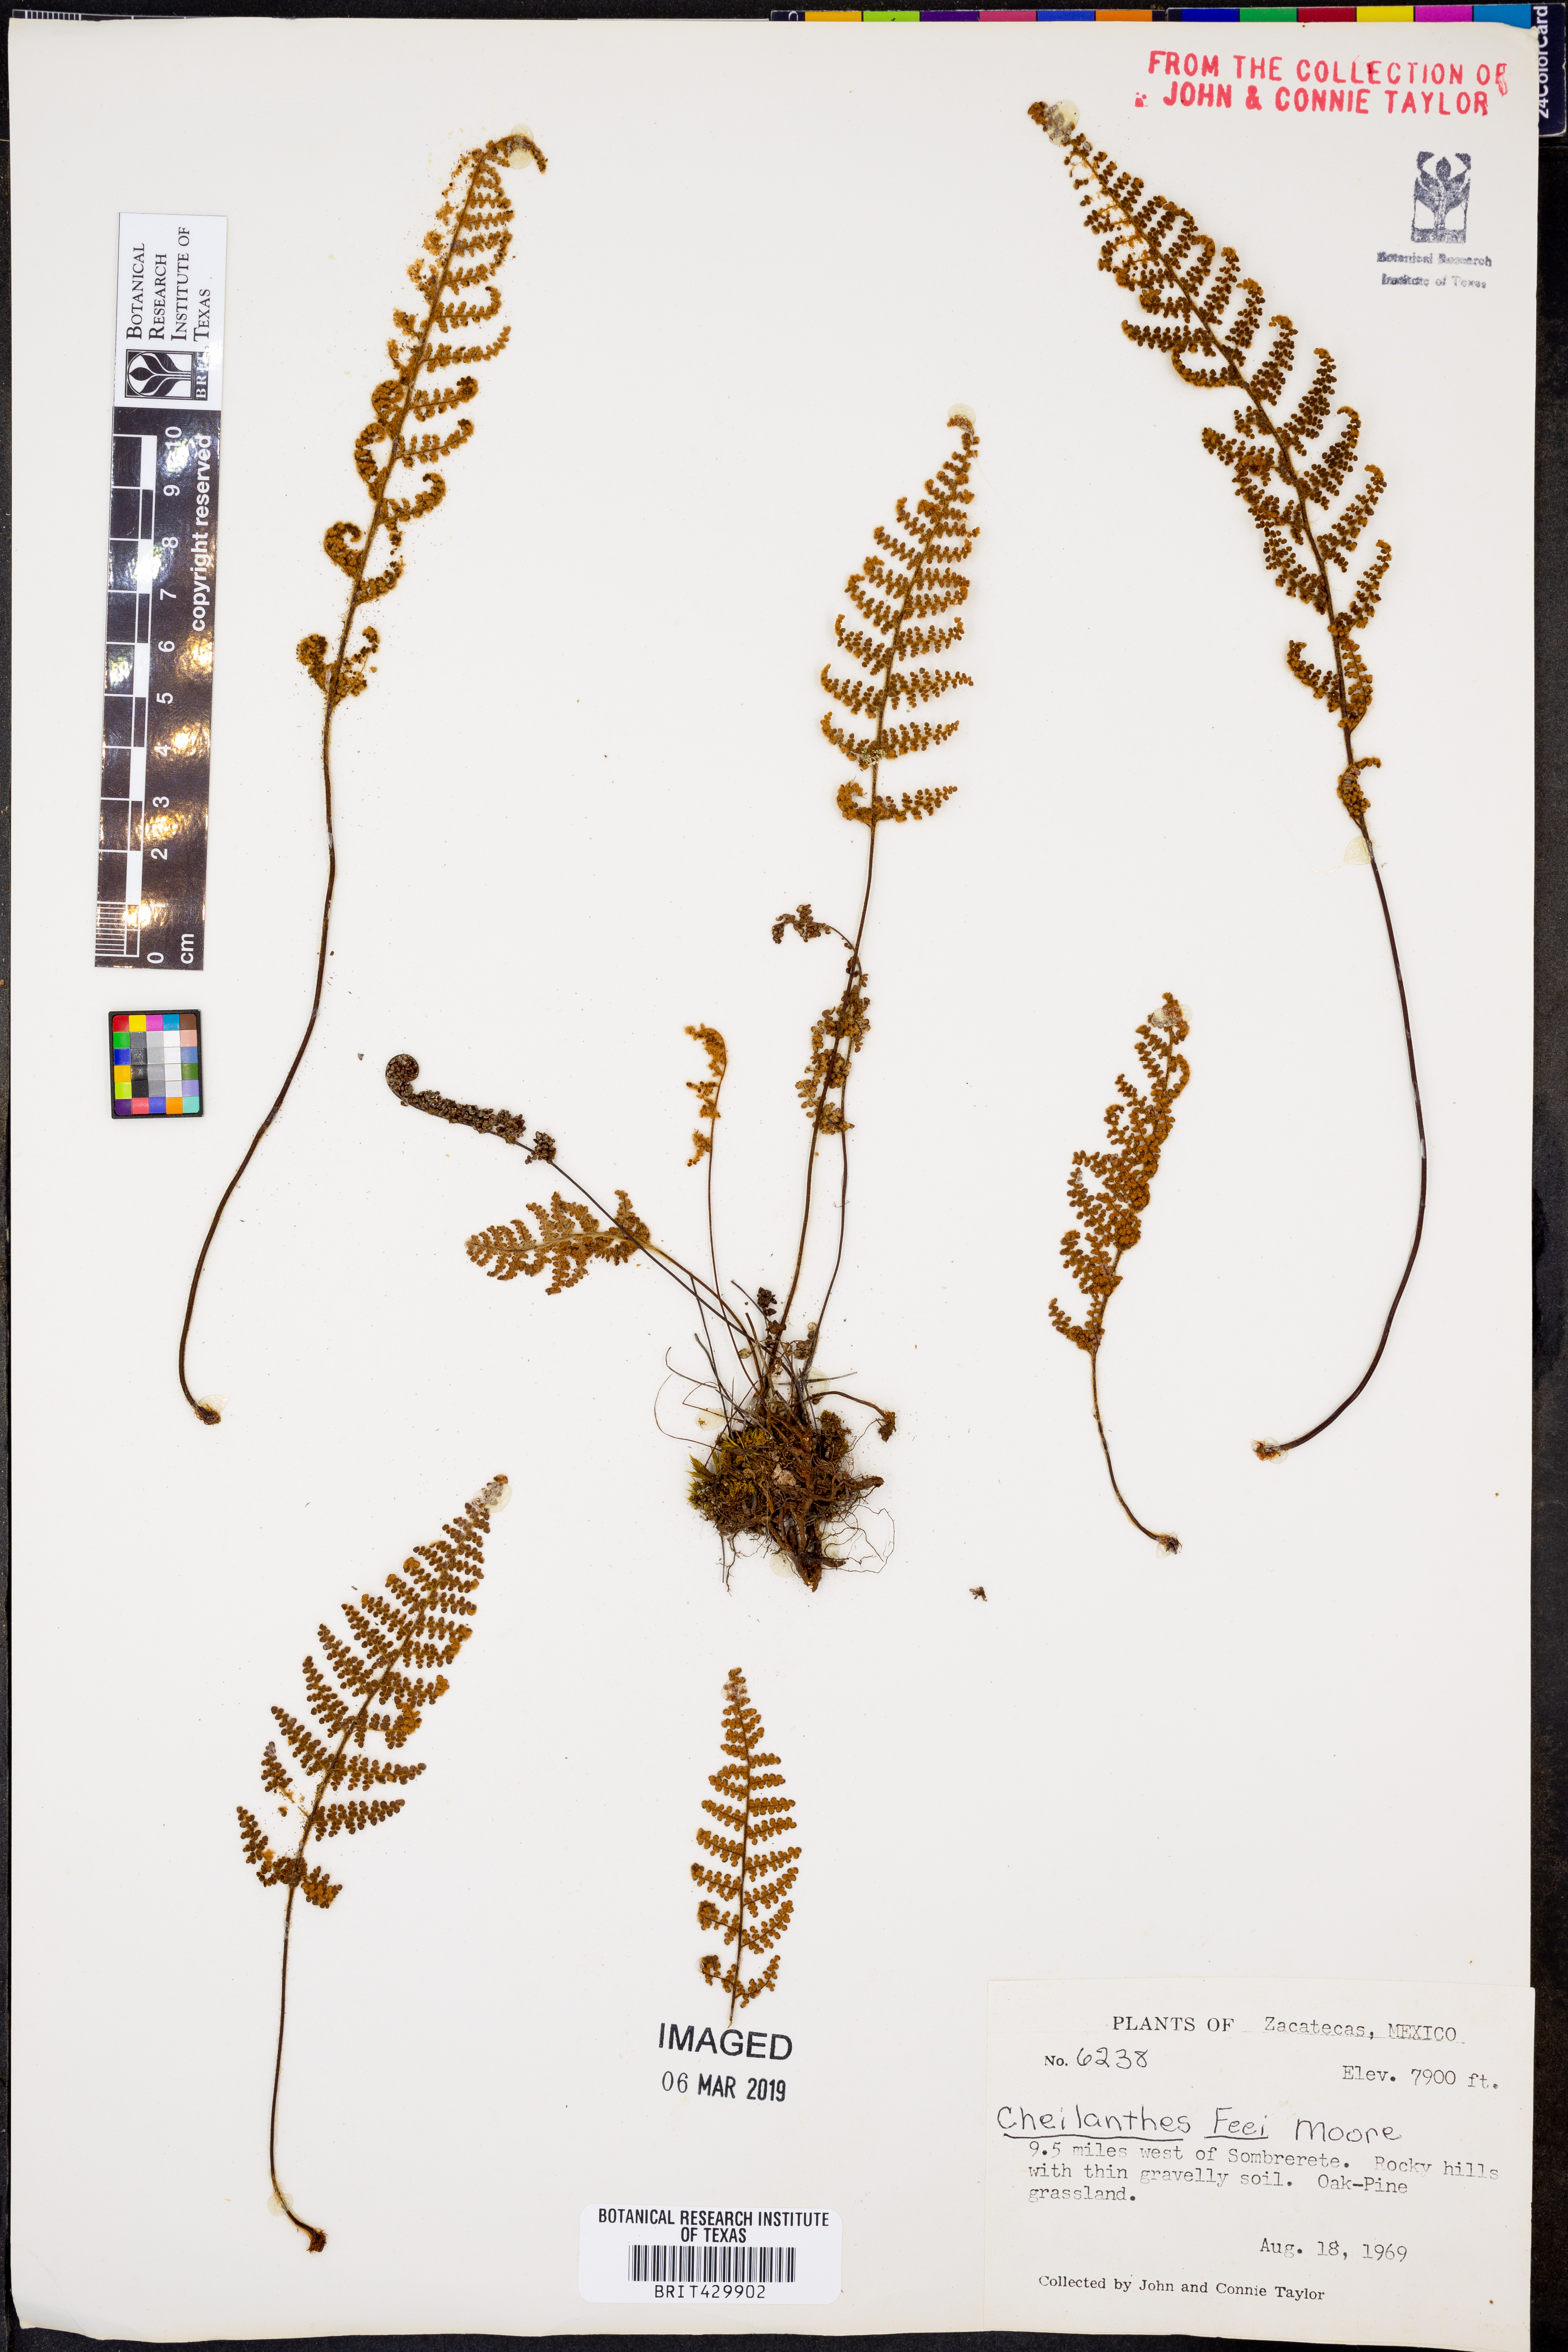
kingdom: Plantae
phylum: Tracheophyta
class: Polypodiopsida
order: Polypodiales
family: Pteridaceae
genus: Myriopteris
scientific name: Myriopteris gracilis
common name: Fee's lip fern
